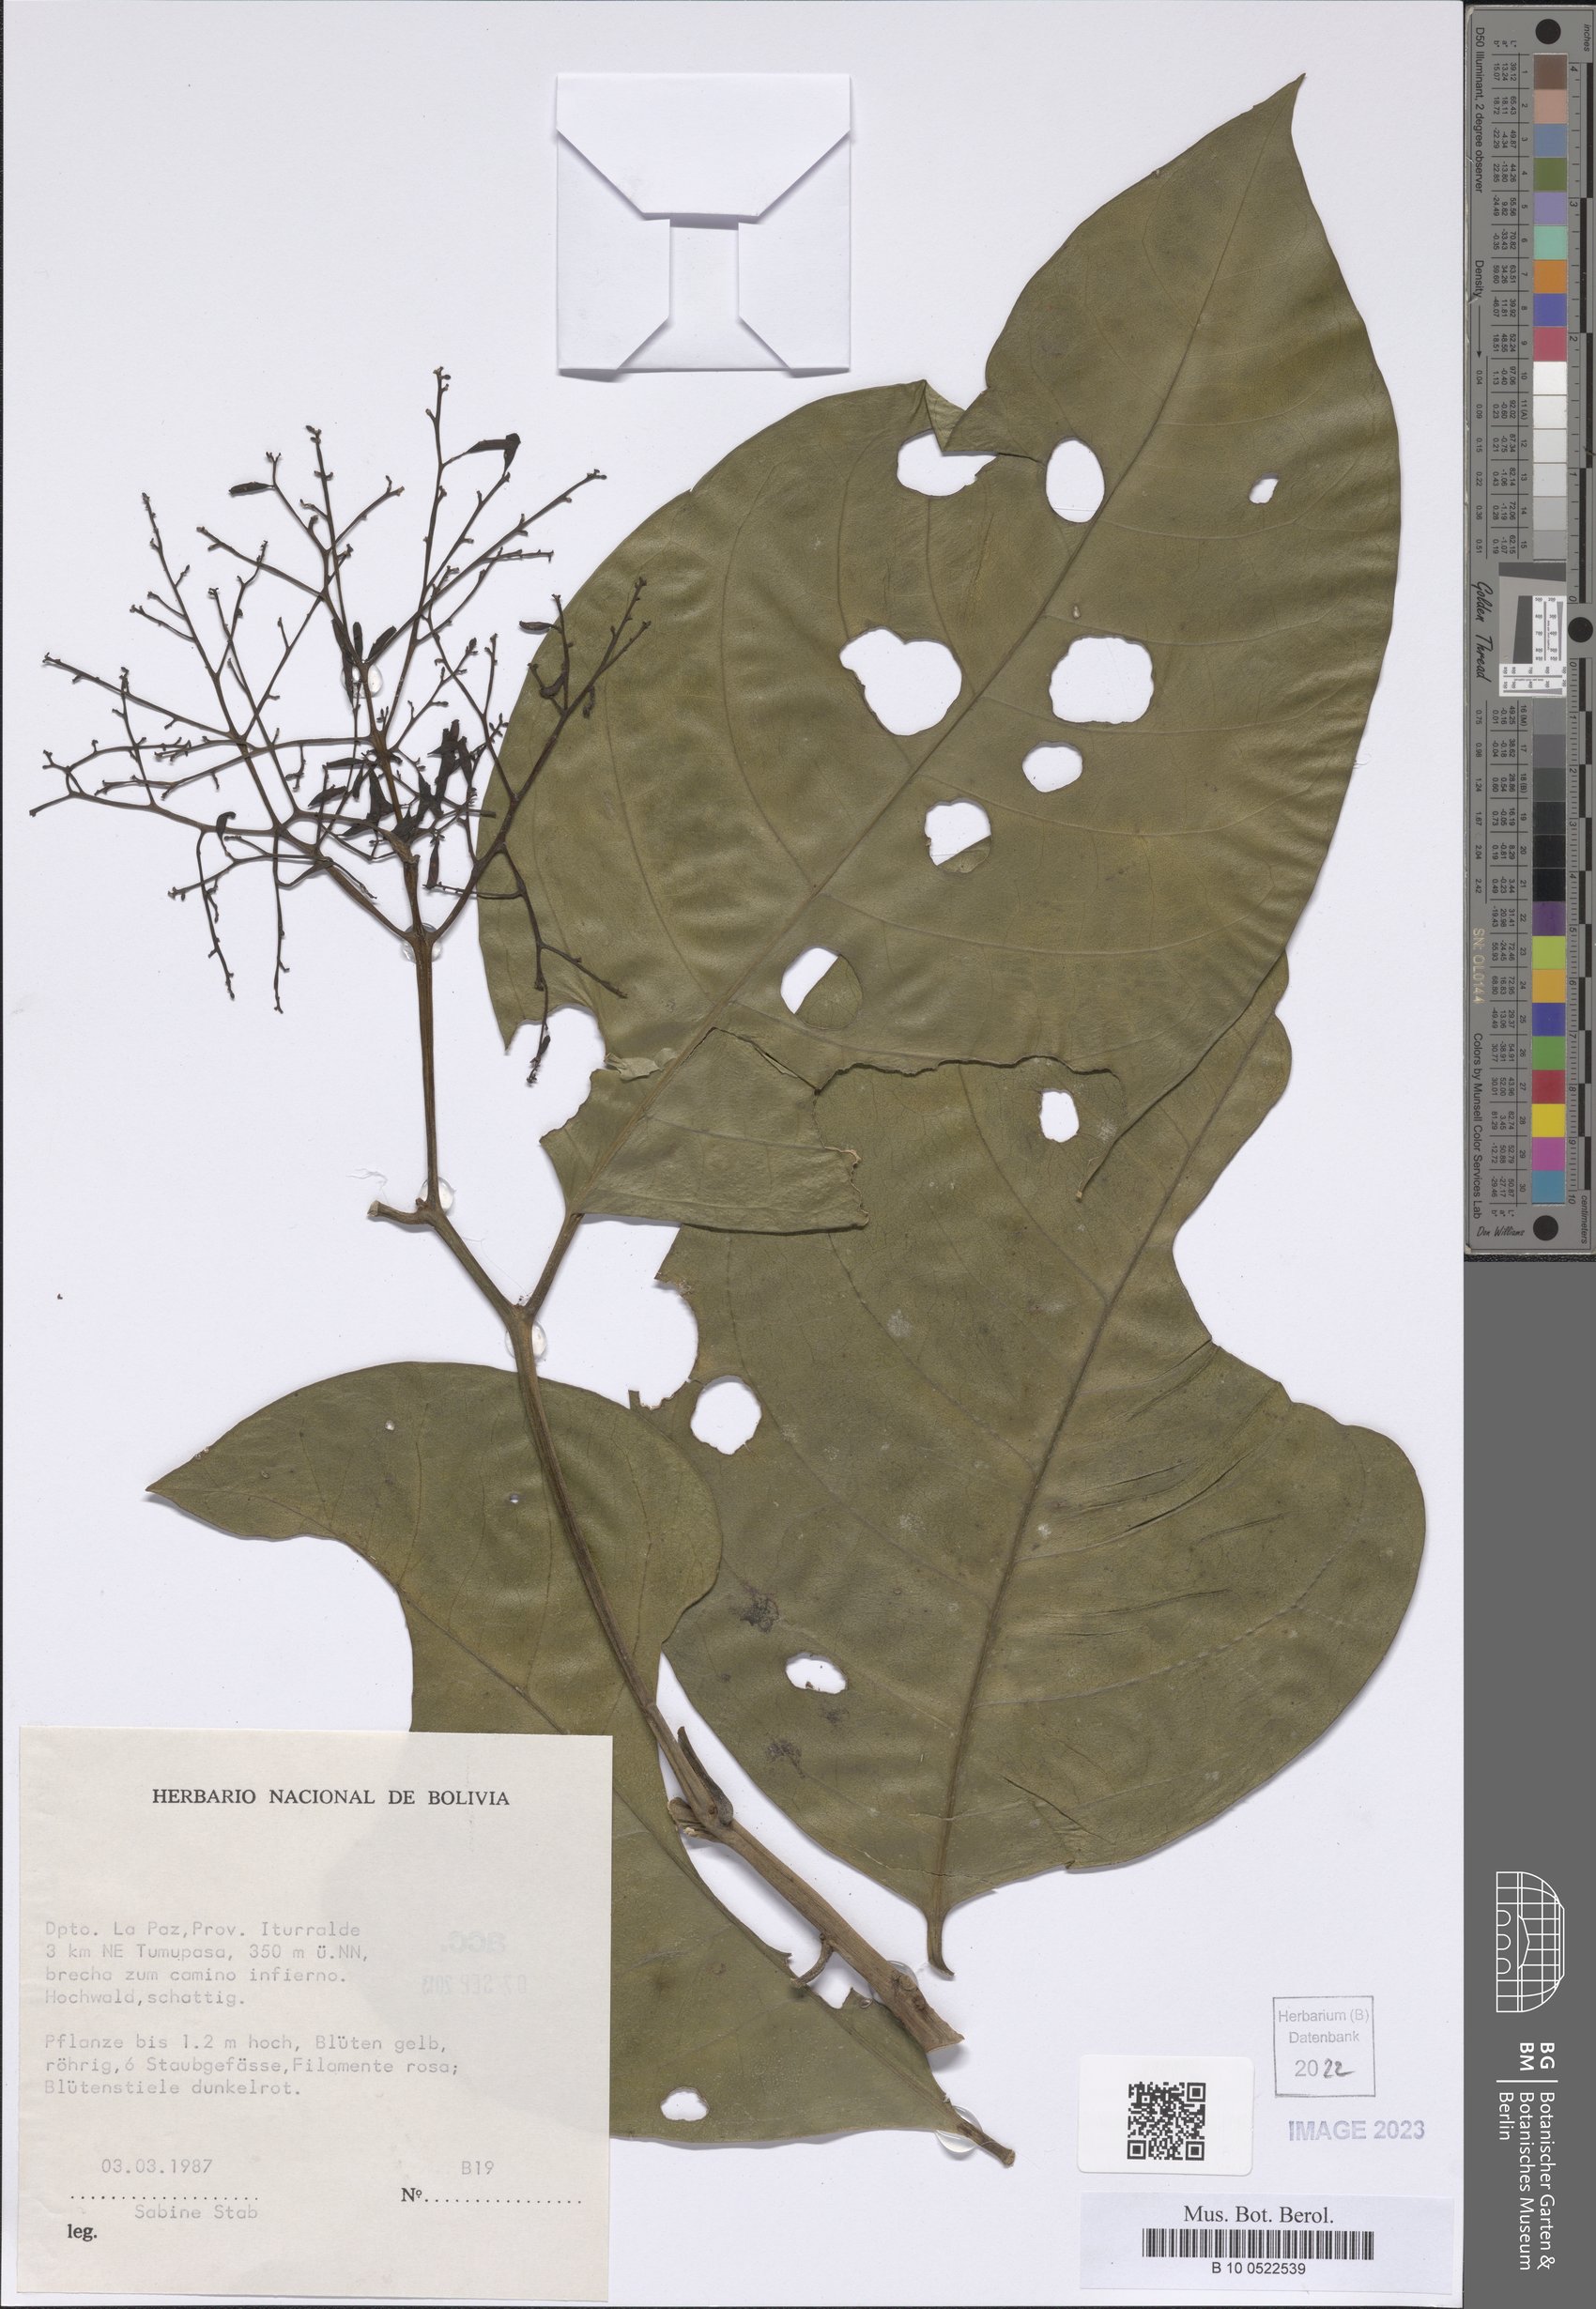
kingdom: Plantae
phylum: Tracheophyta
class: Magnoliopsida
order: Caryophyllales
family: Nyctaginaceae
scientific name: Nyctaginaceae
